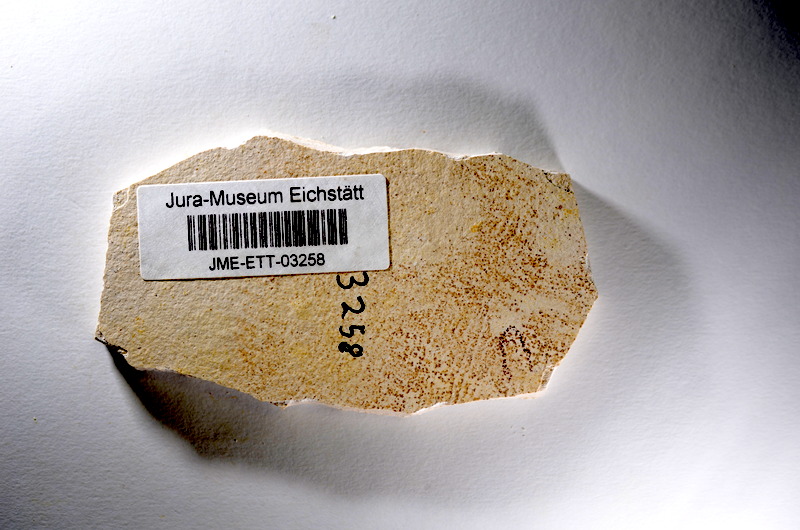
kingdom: Animalia
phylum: Chordata
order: Salmoniformes
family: Orthogonikleithridae
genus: Orthogonikleithrus
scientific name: Orthogonikleithrus hoelli
